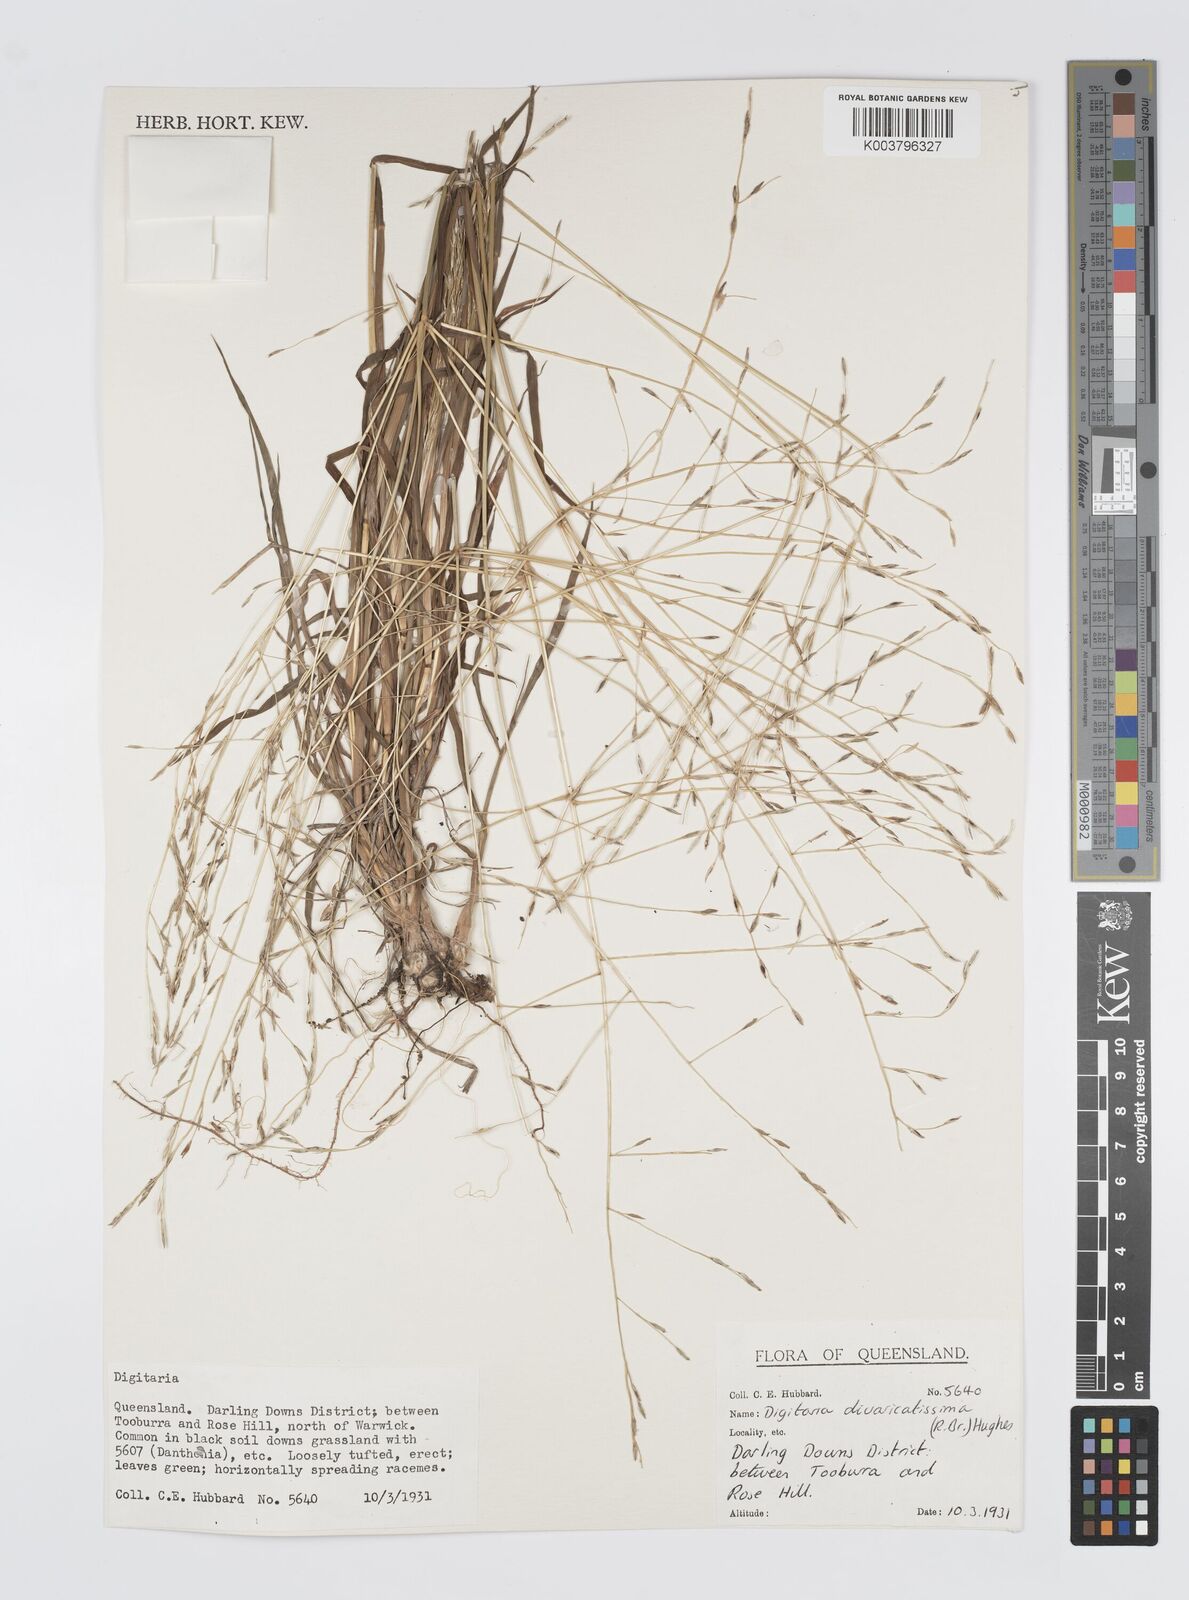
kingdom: Plantae
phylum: Tracheophyta
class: Liliopsida
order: Poales
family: Poaceae
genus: Digitaria
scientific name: Digitaria spec
